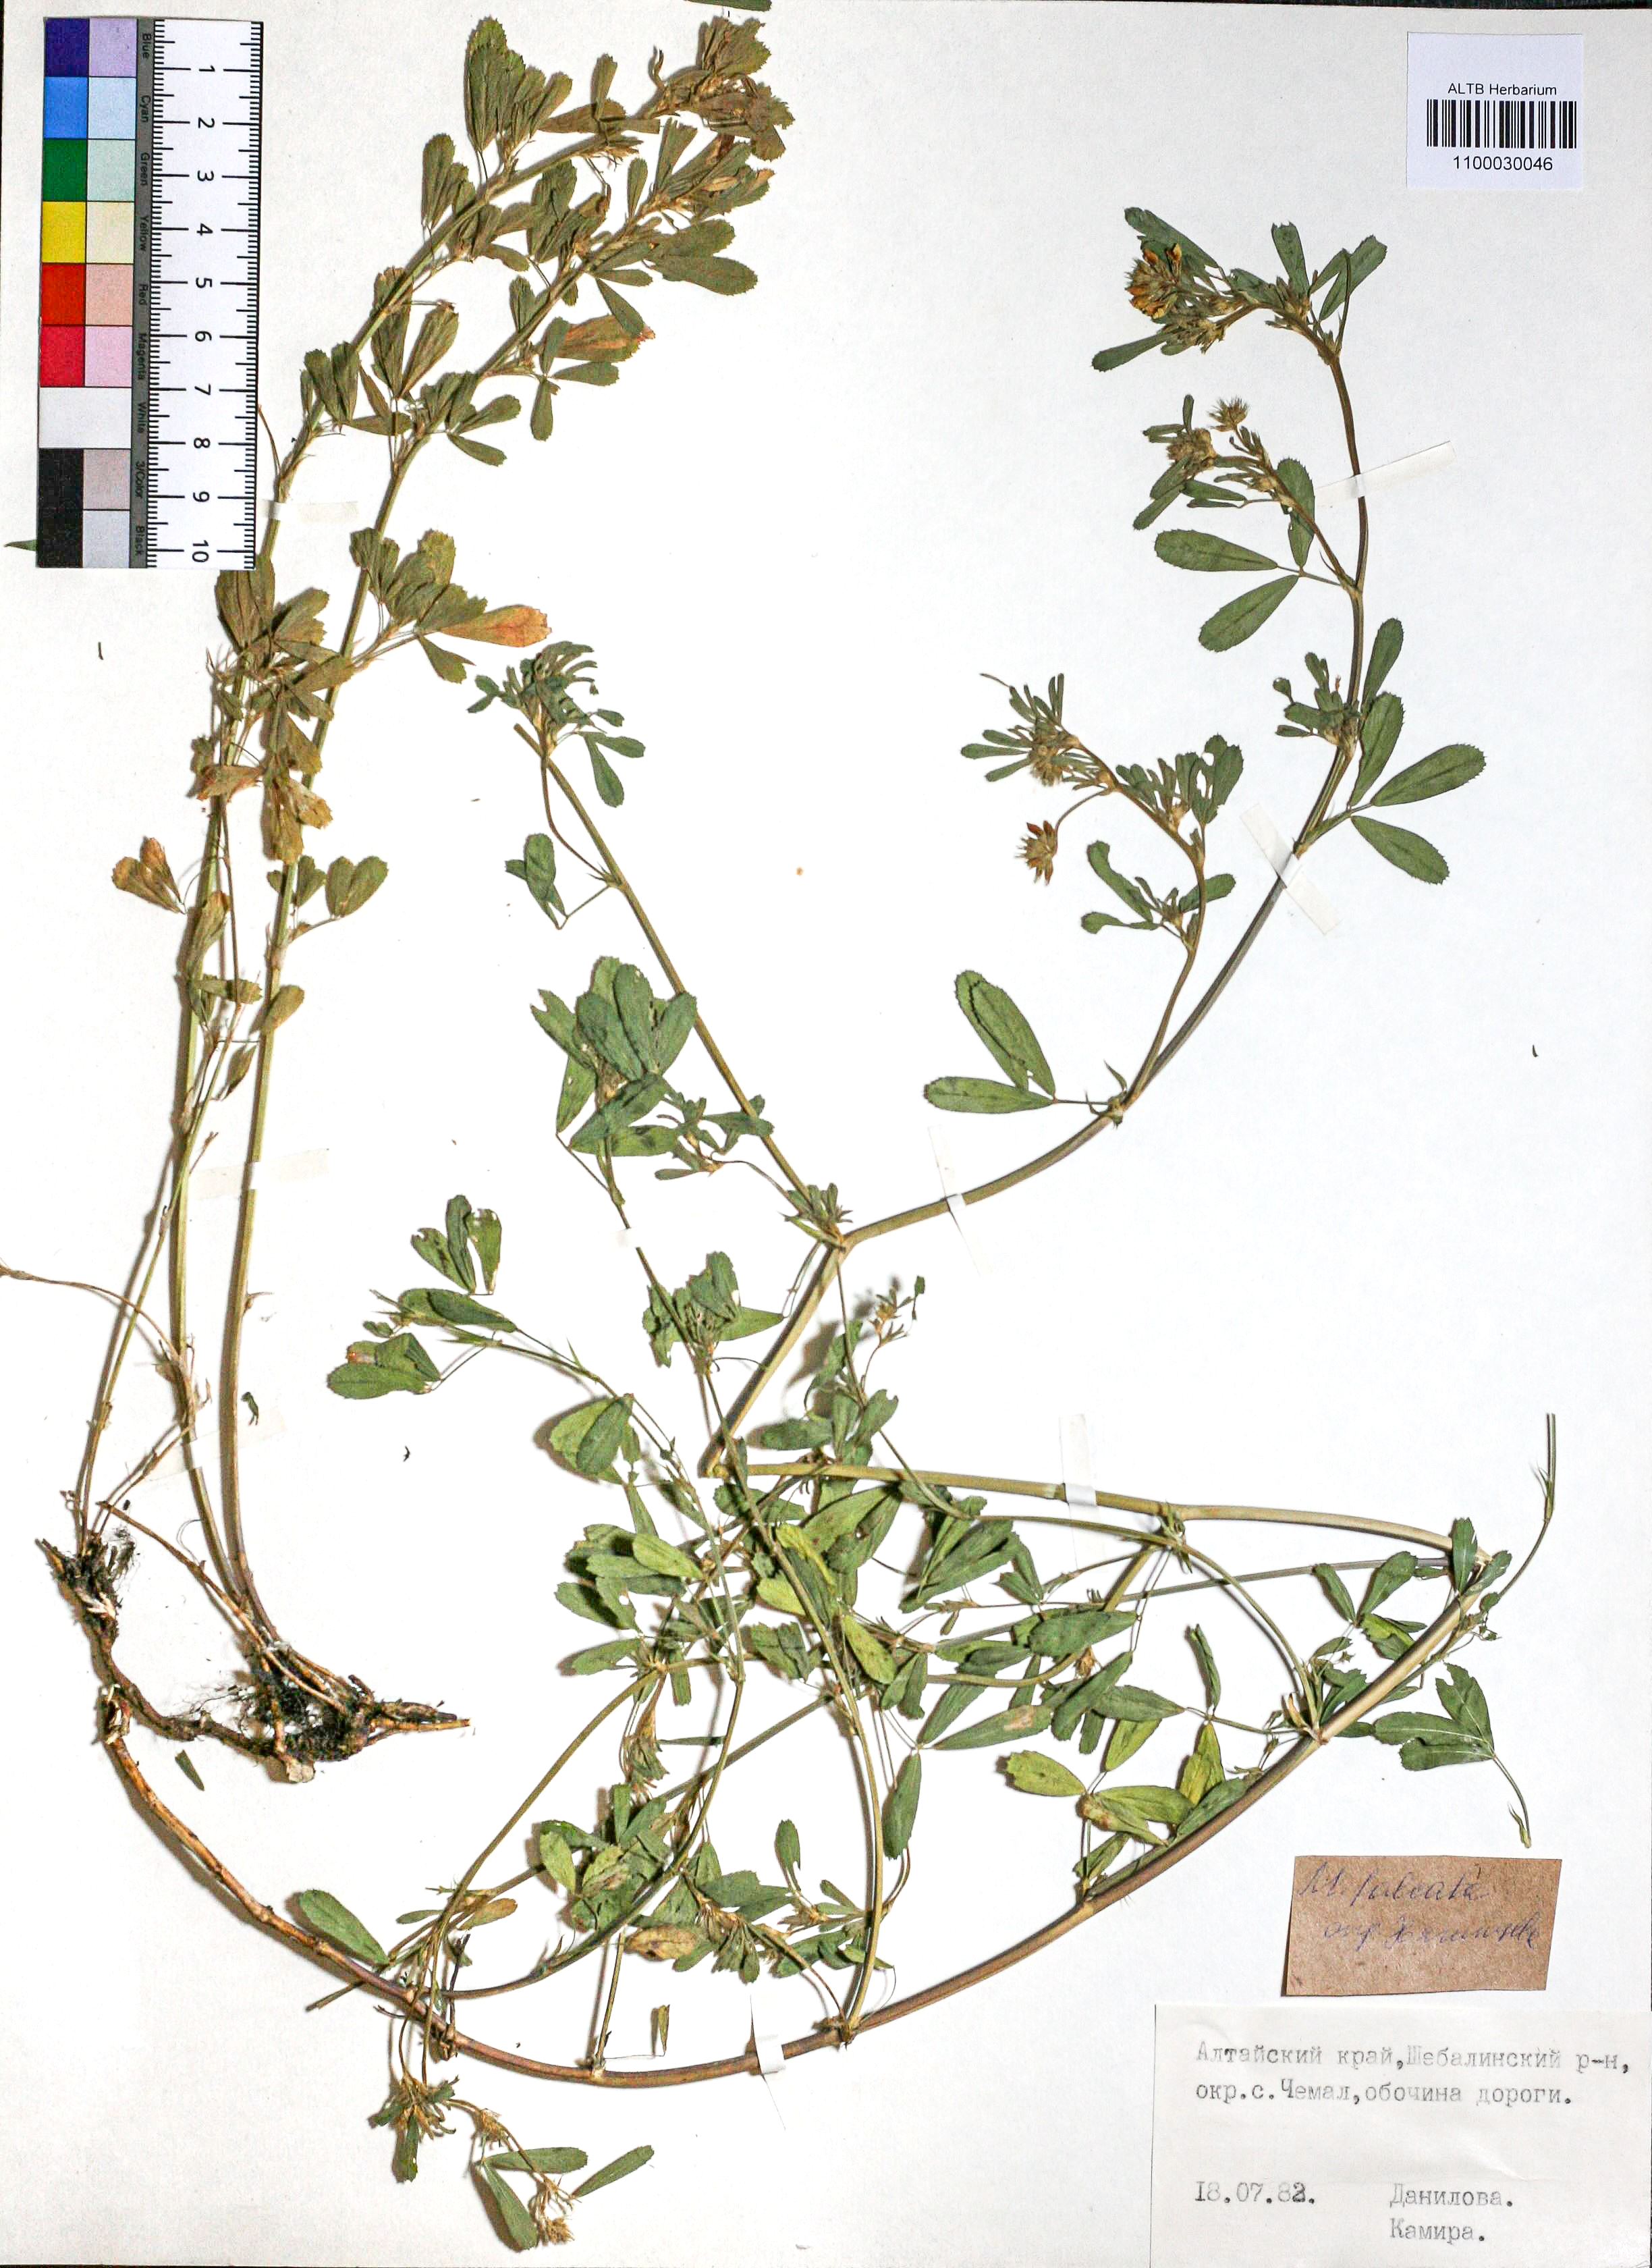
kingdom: Plantae
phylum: Tracheophyta
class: Magnoliopsida
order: Fabales
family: Fabaceae
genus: Medicago
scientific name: Medicago falcata
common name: Sickle medick
